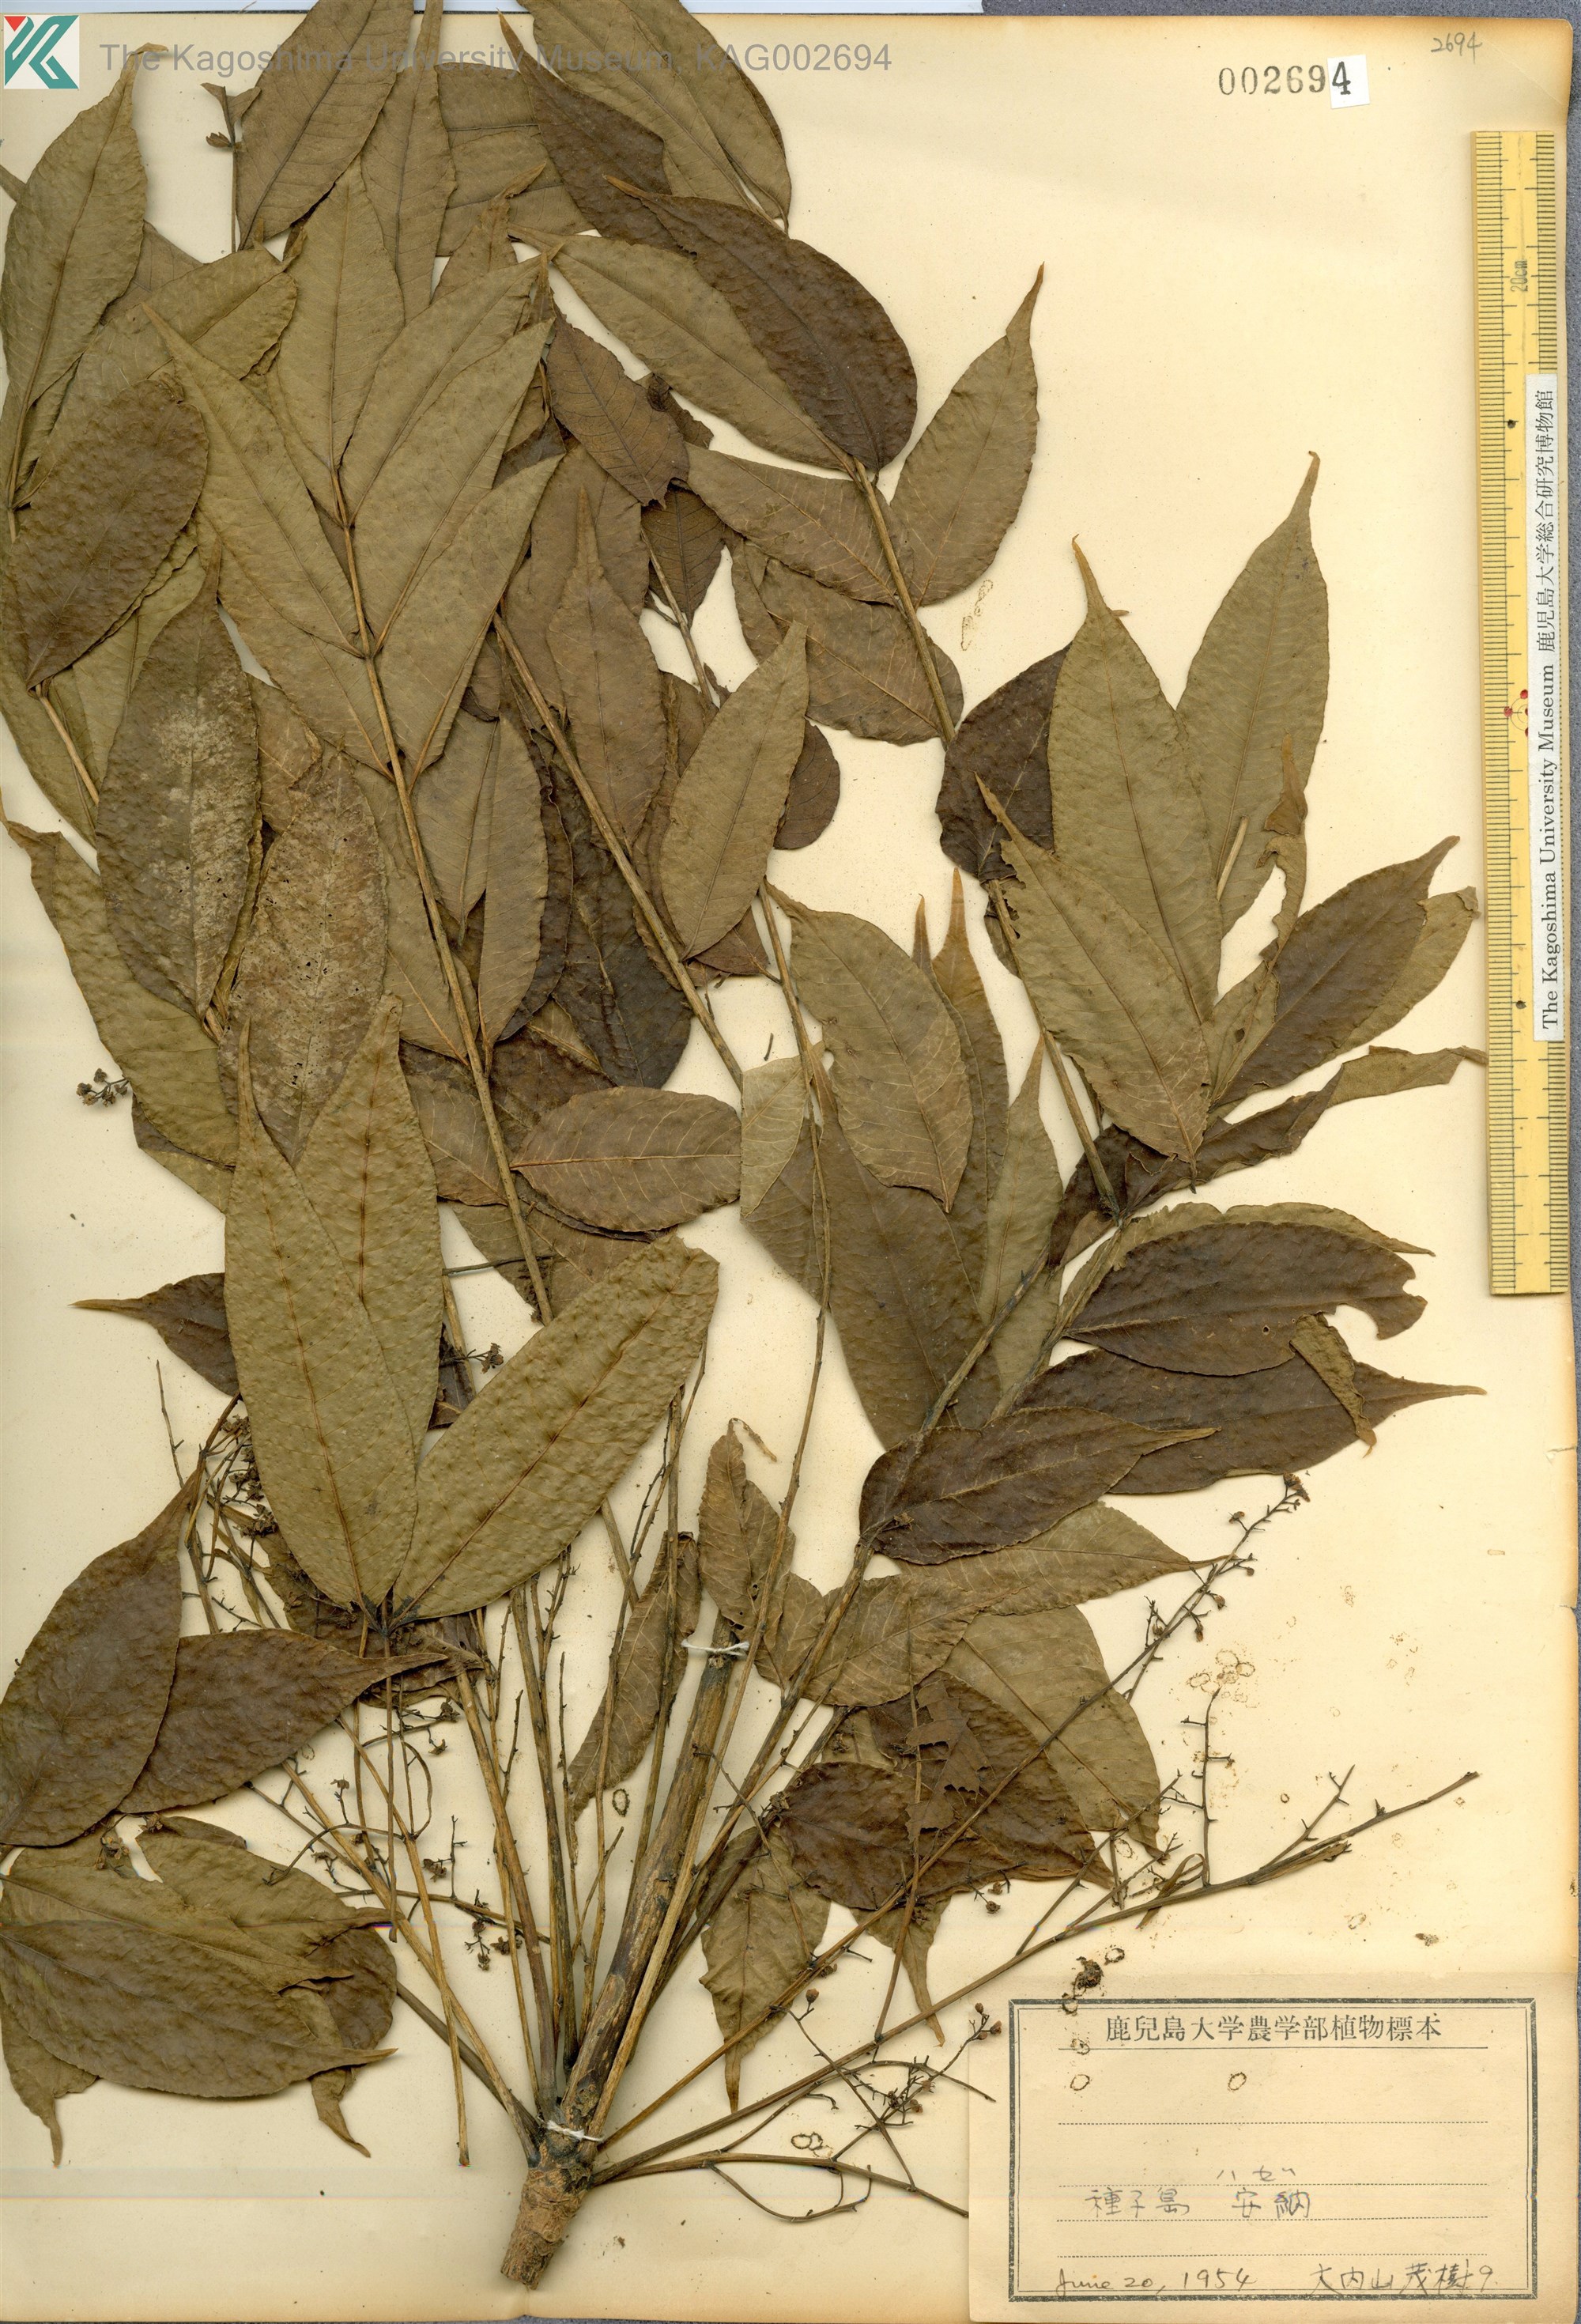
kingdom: Plantae
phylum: Tracheophyta
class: Magnoliopsida
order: Sapindales
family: Anacardiaceae
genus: Toxicodendron
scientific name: Toxicodendron succedaneum
